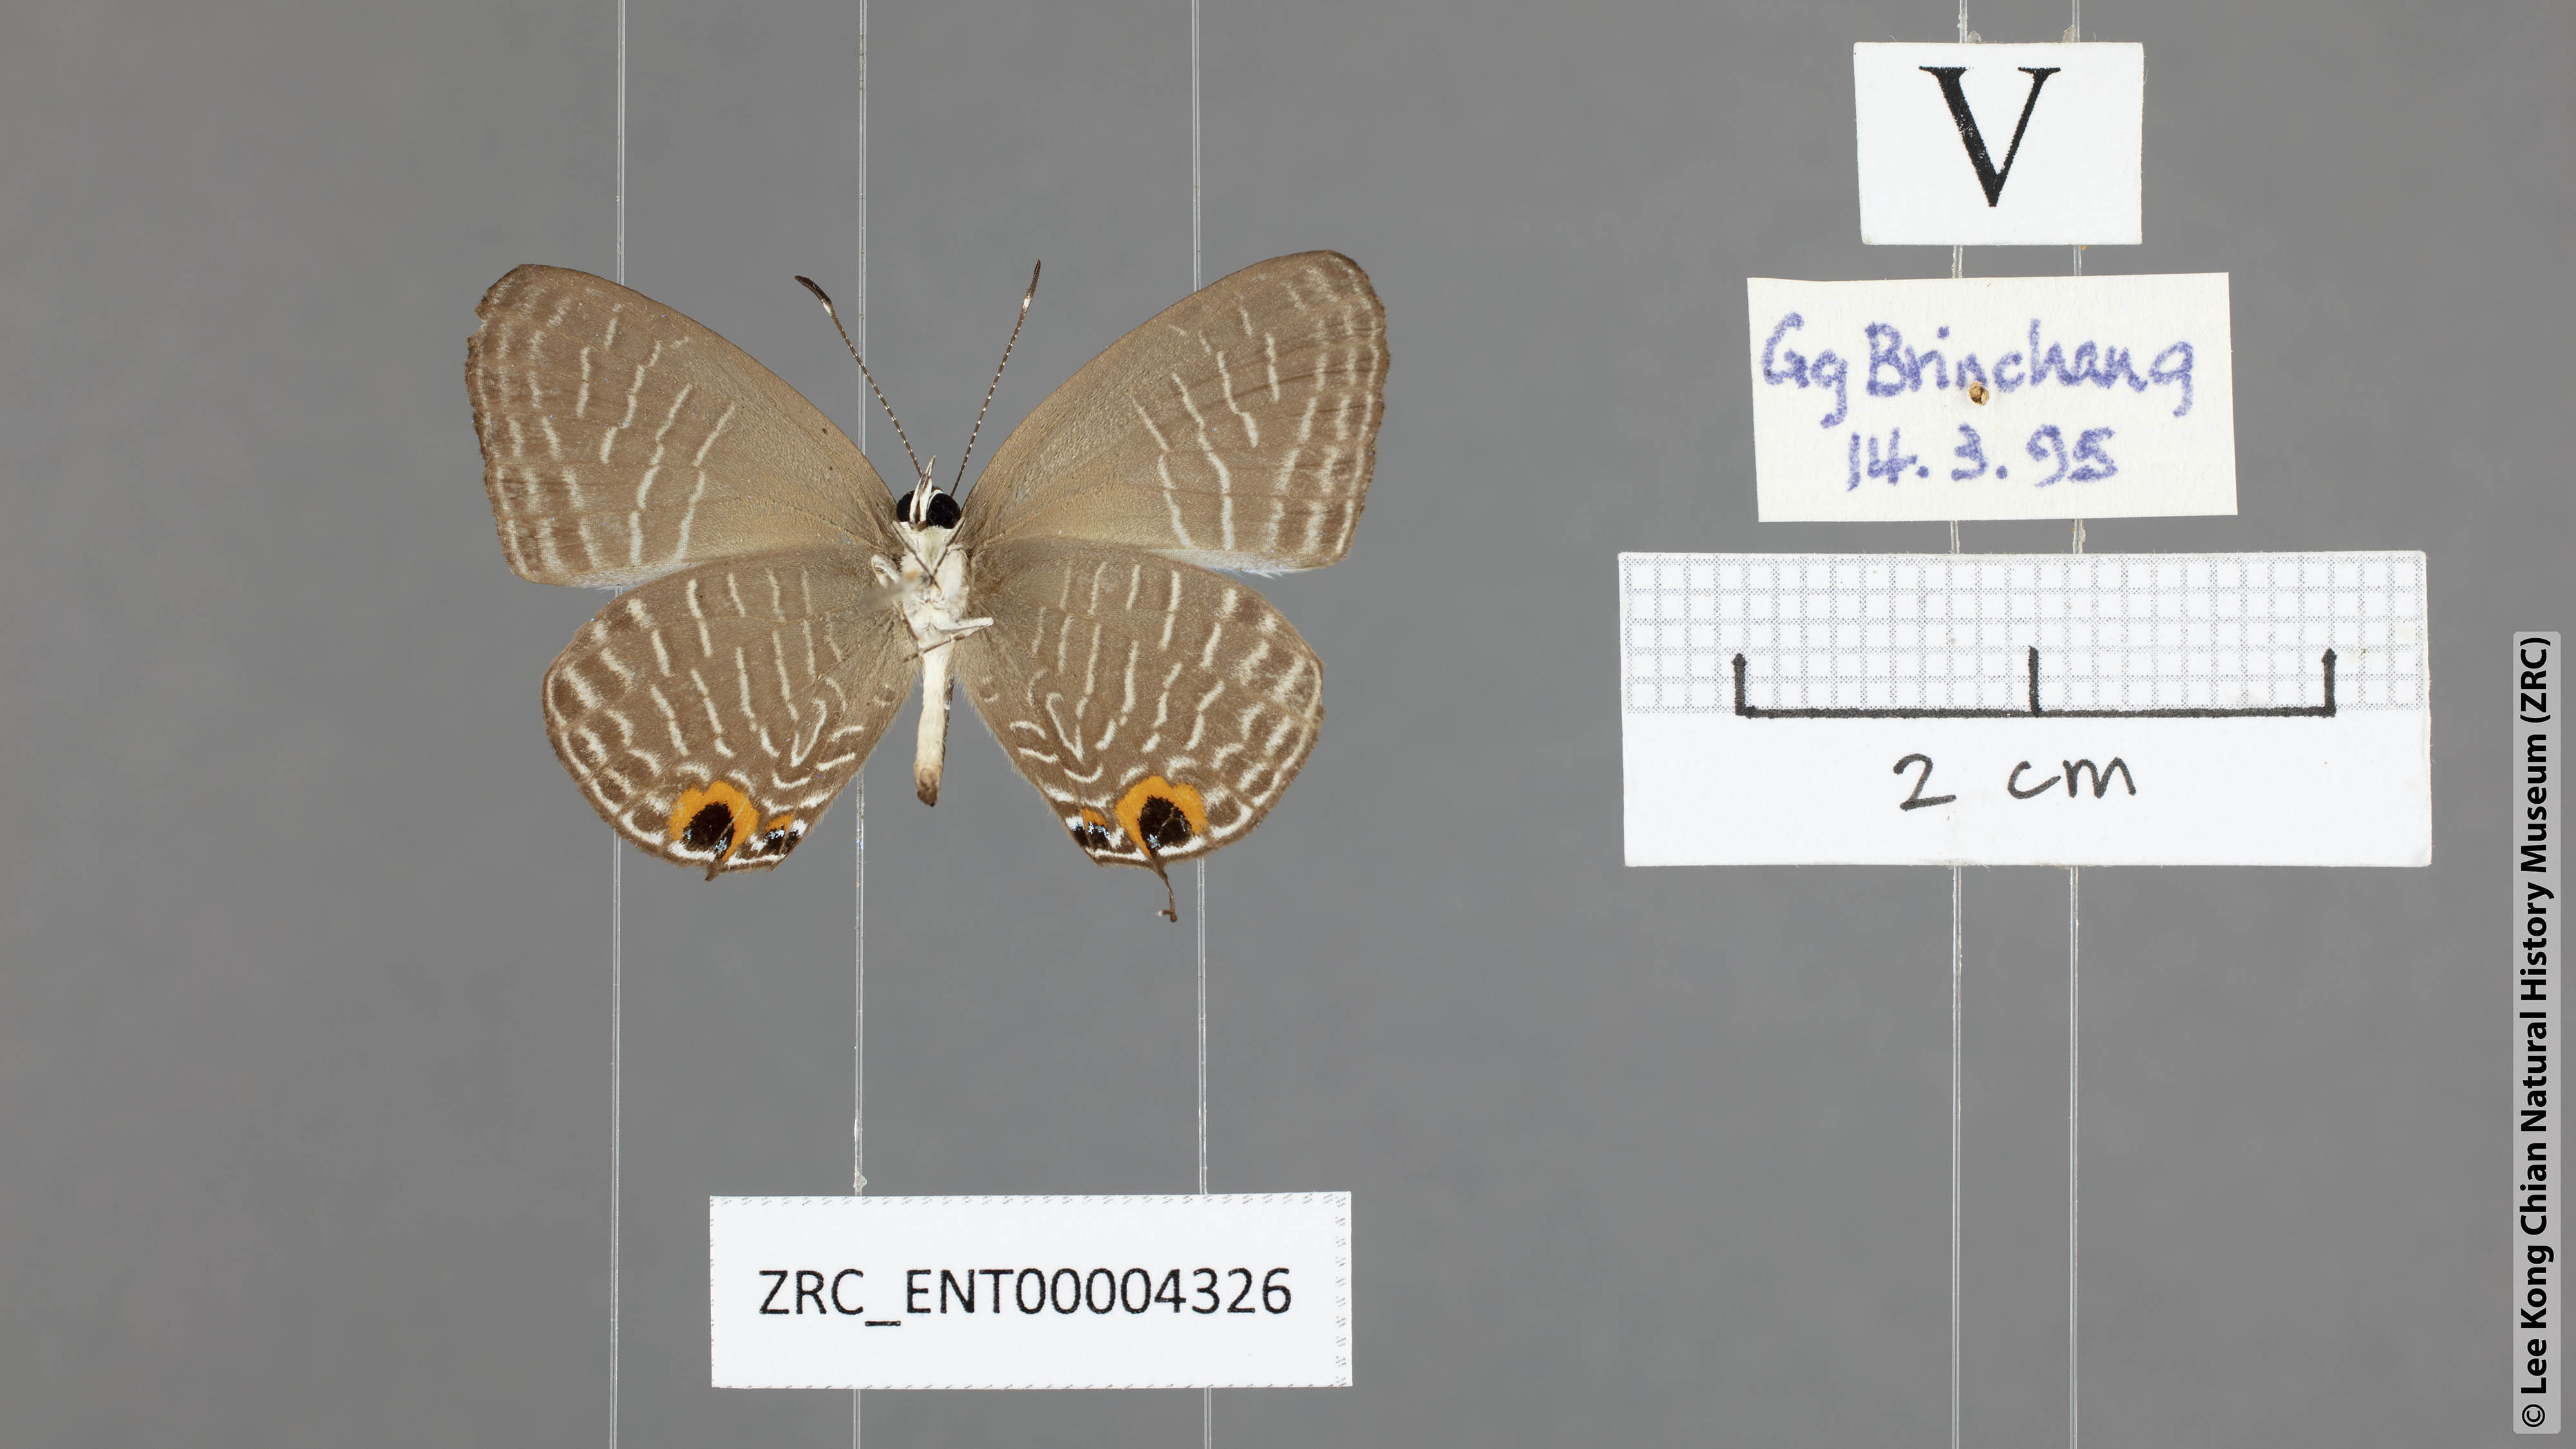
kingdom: Animalia
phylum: Arthropoda
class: Insecta
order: Lepidoptera
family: Lycaenidae
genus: Jamides
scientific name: Jamides caerulea
